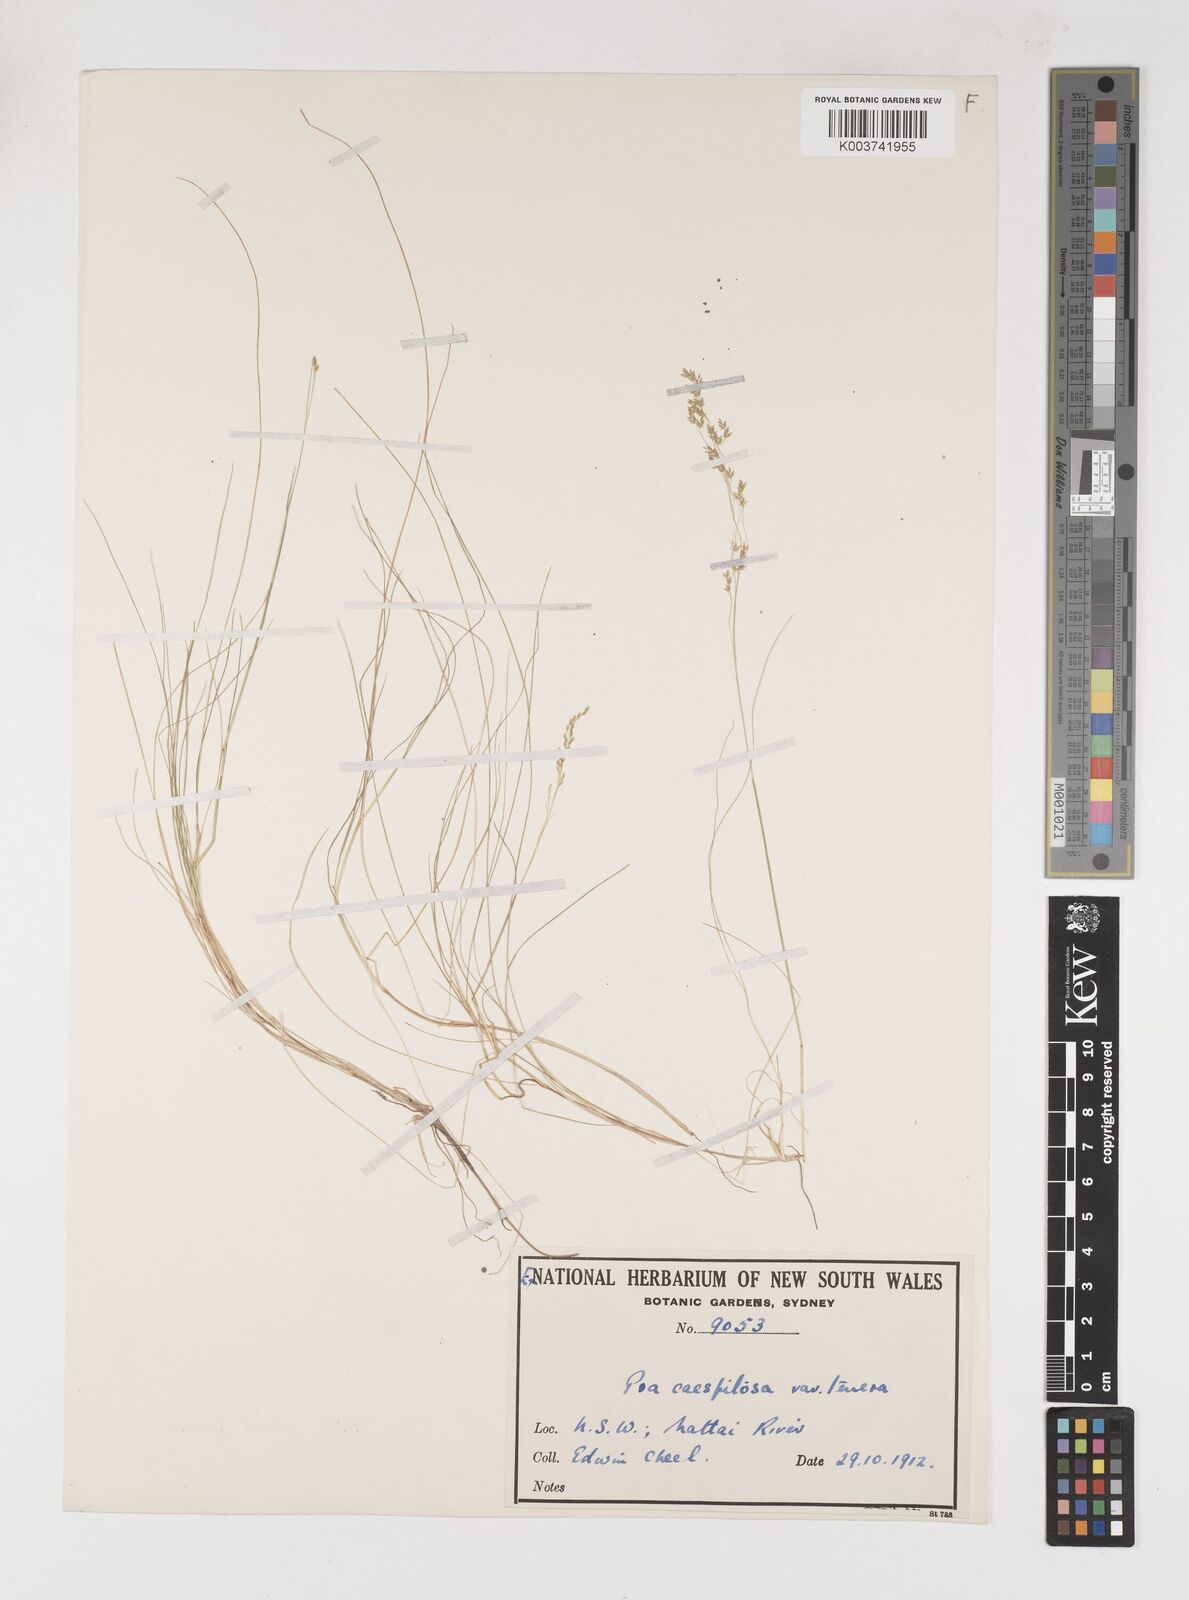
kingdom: Plantae
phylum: Tracheophyta
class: Liliopsida
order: Poales
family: Poaceae
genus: Poa
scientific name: Poa tenera
